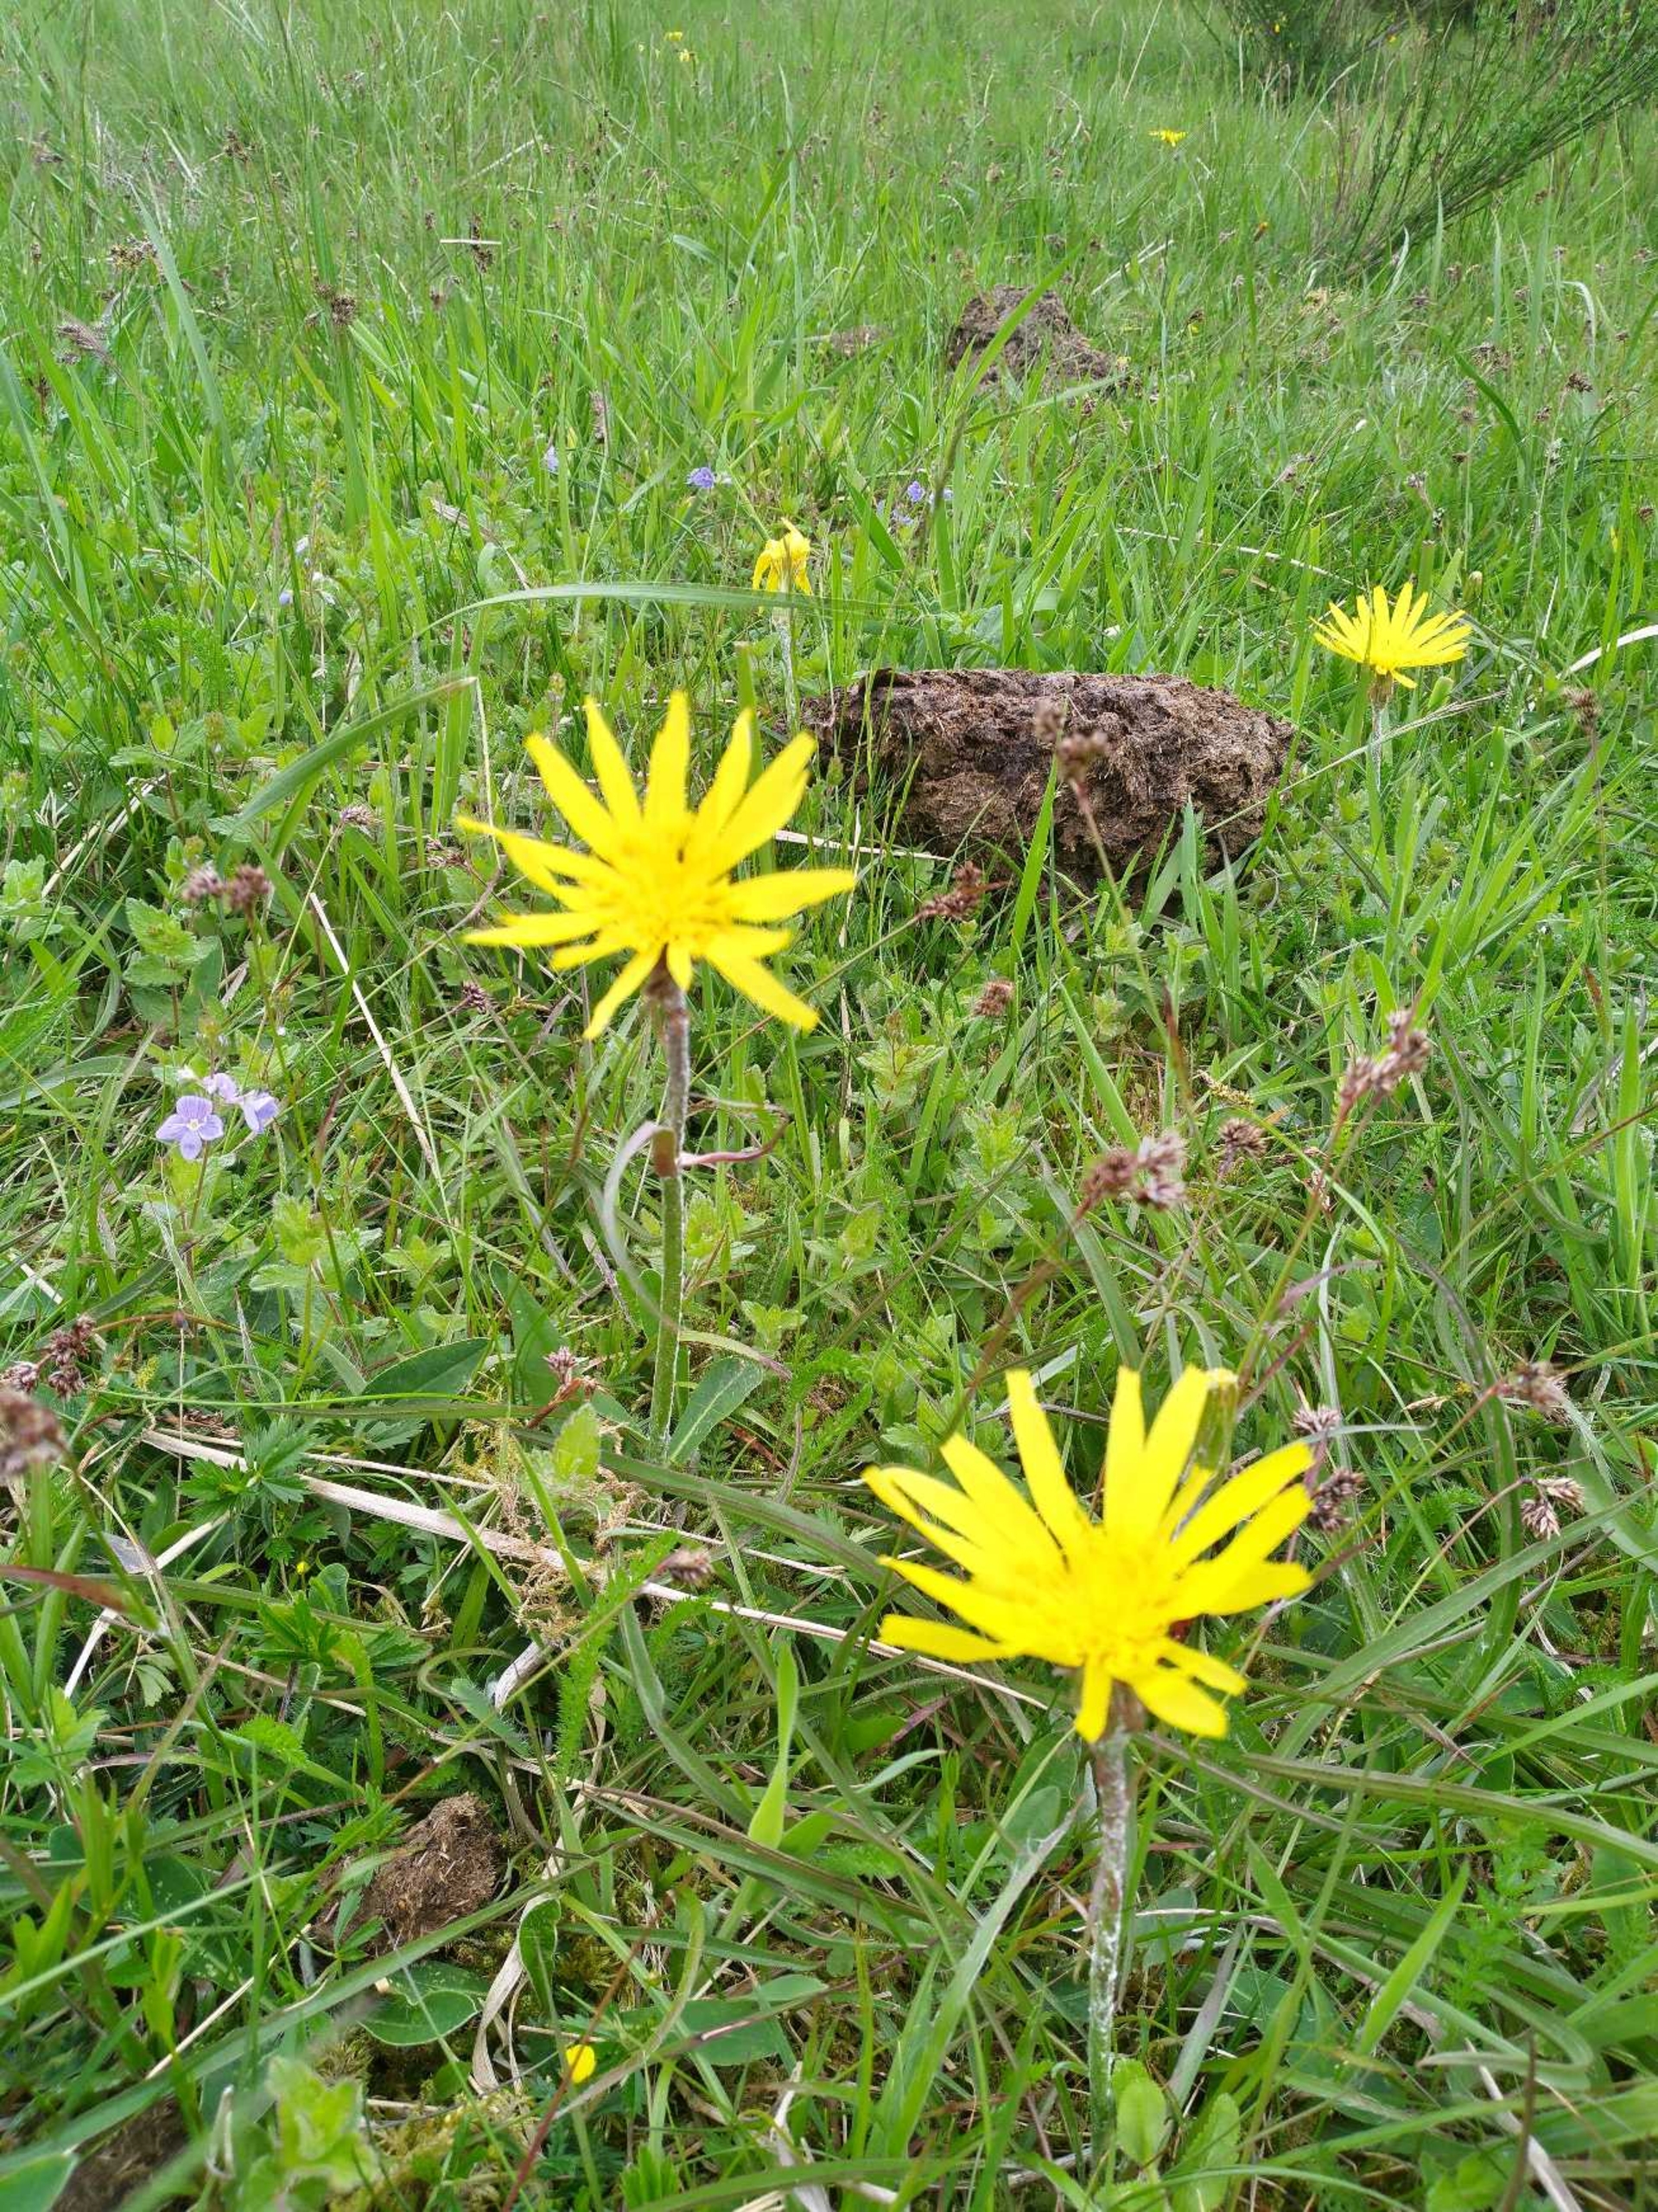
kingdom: Plantae
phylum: Tracheophyta
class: Magnoliopsida
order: Asterales
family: Asteraceae
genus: Scorzonera
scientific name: Scorzonera humilis
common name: Lav skorsoner
